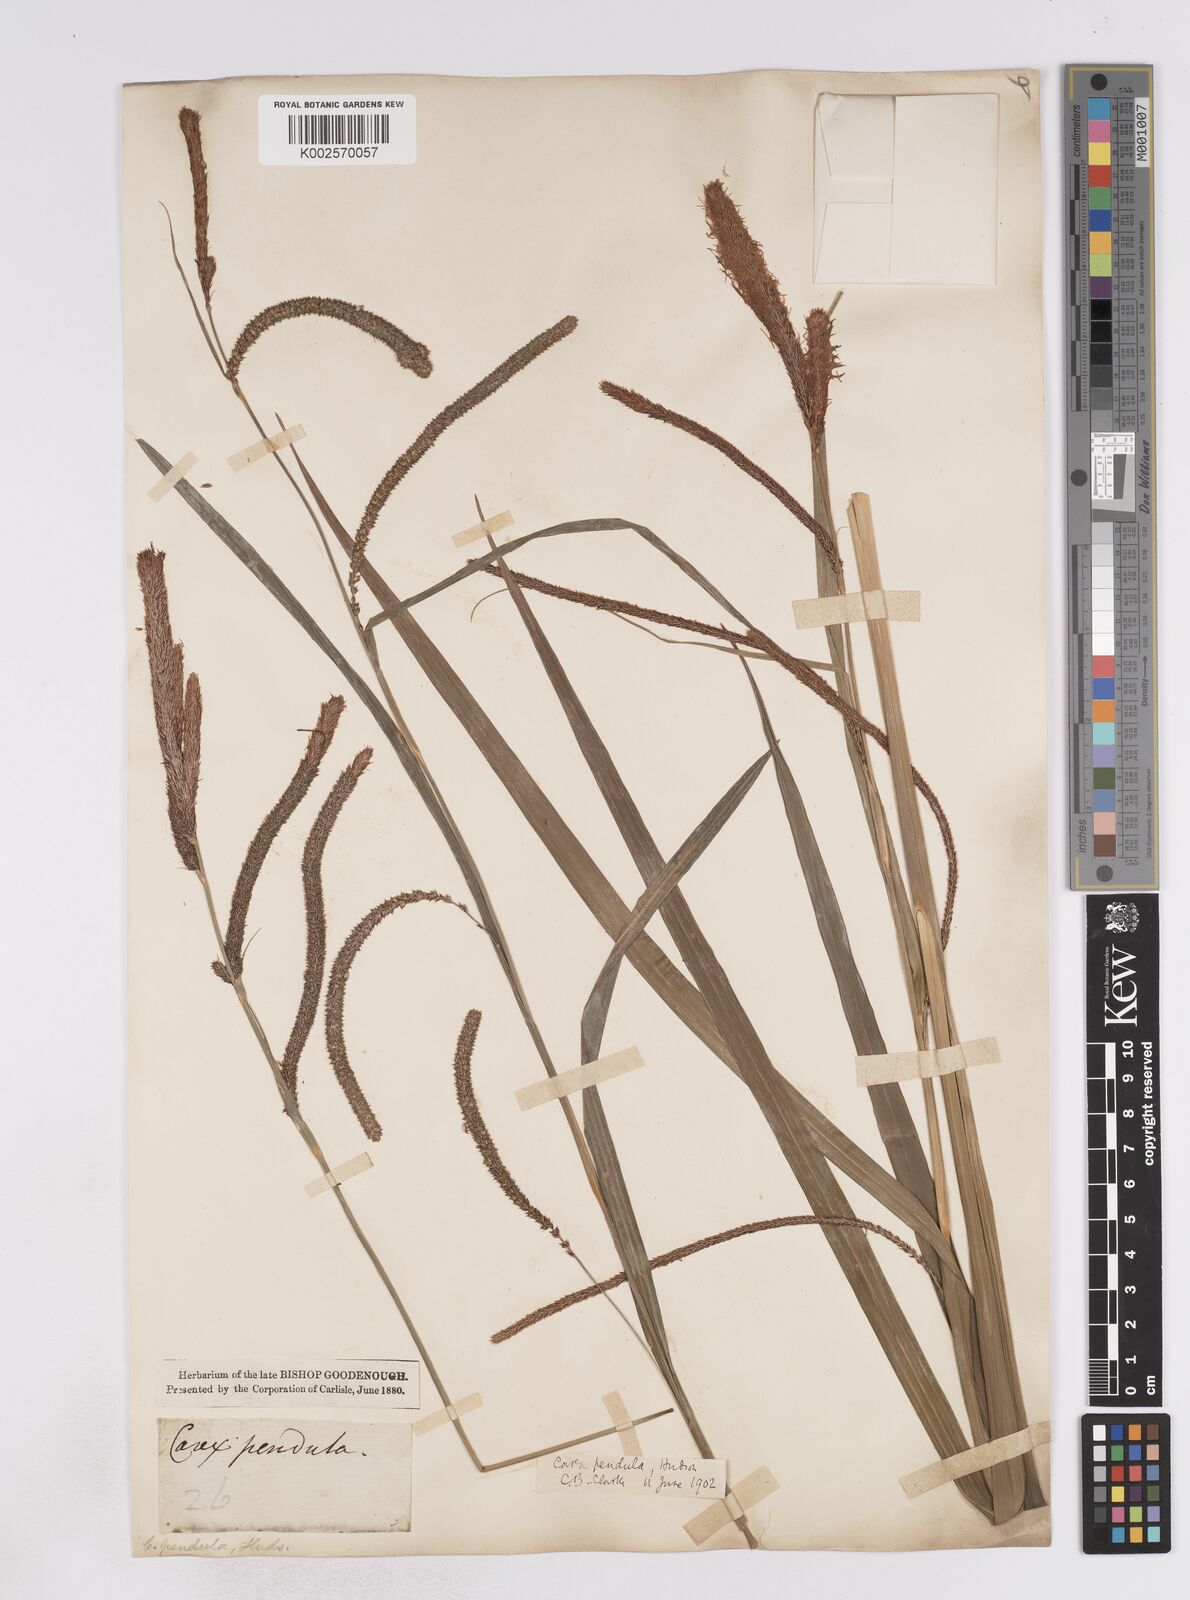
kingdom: Plantae
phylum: Tracheophyta
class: Liliopsida
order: Poales
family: Cyperaceae
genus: Carex
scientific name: Carex pendula
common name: Pendulous sedge
